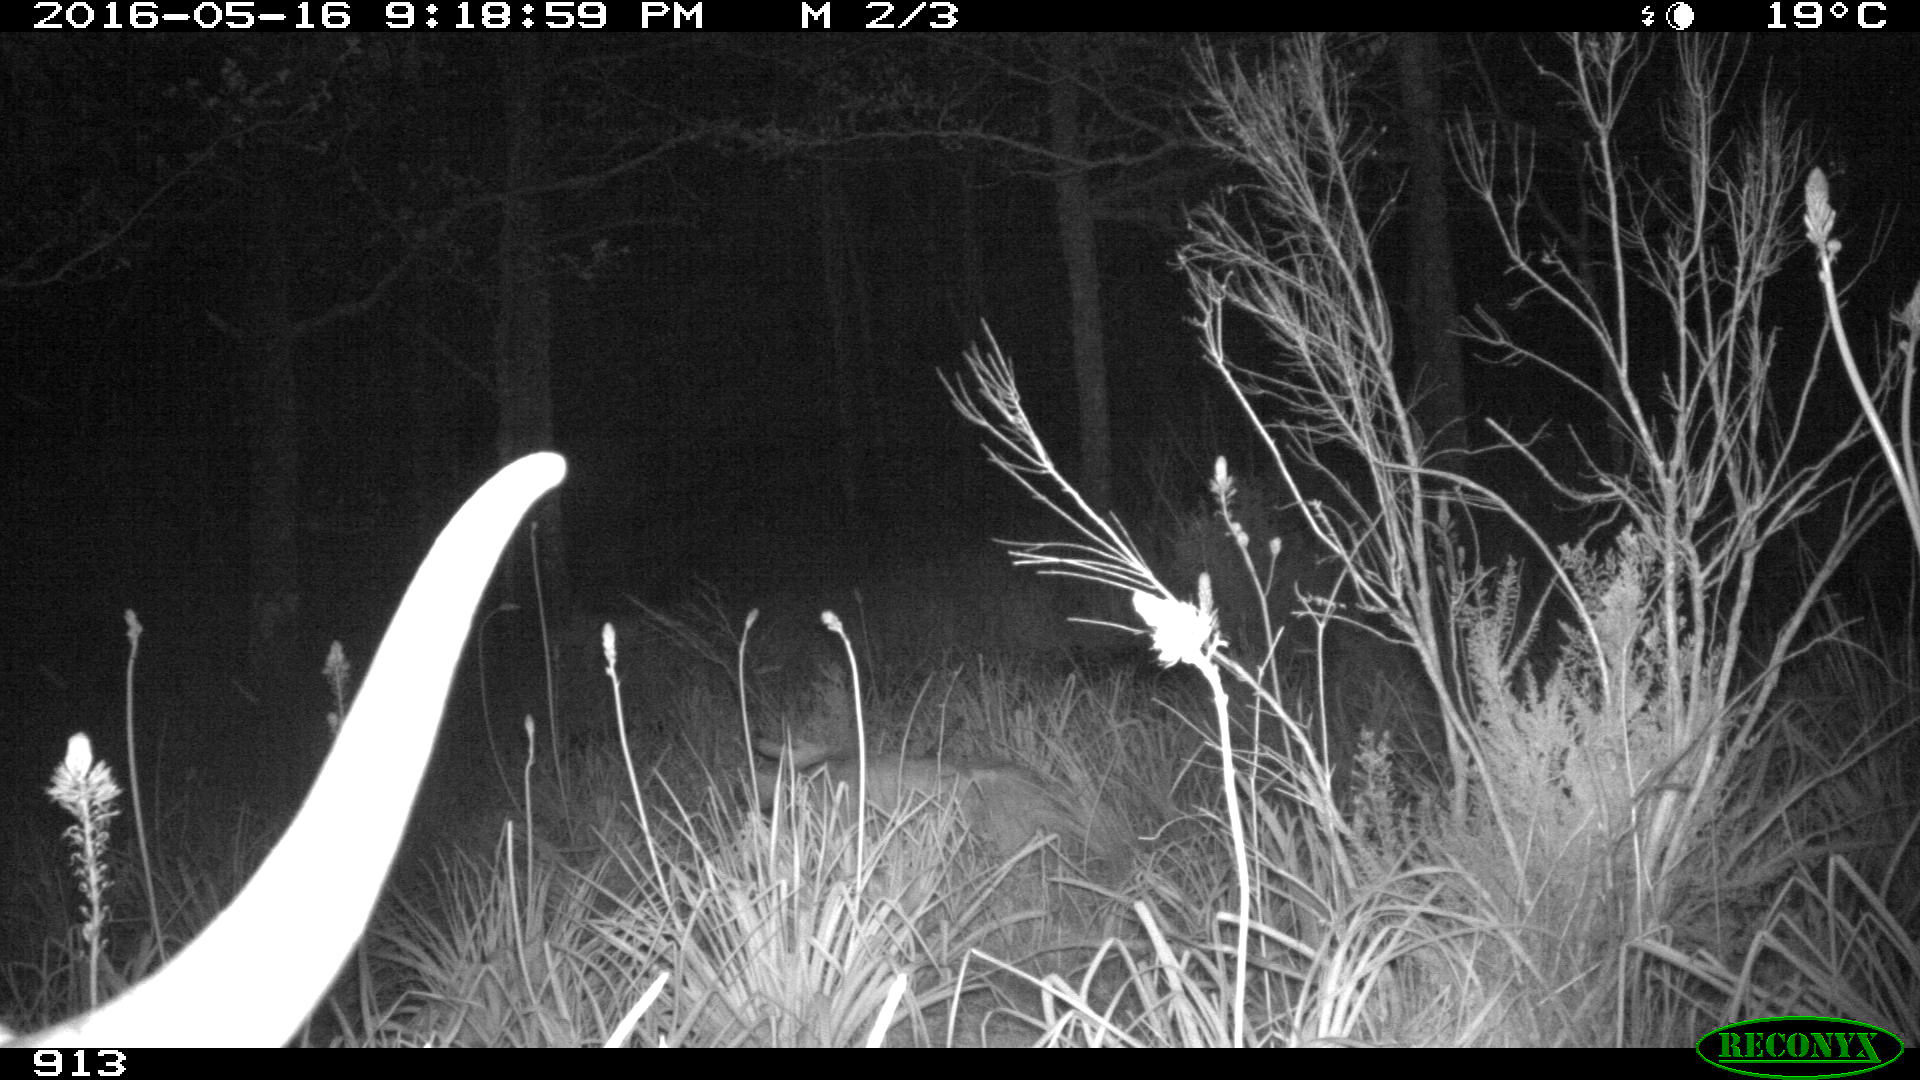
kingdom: Animalia
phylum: Chordata
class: Mammalia
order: Artiodactyla
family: Bovidae
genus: Bos
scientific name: Bos taurus
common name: Domesticated cattle
